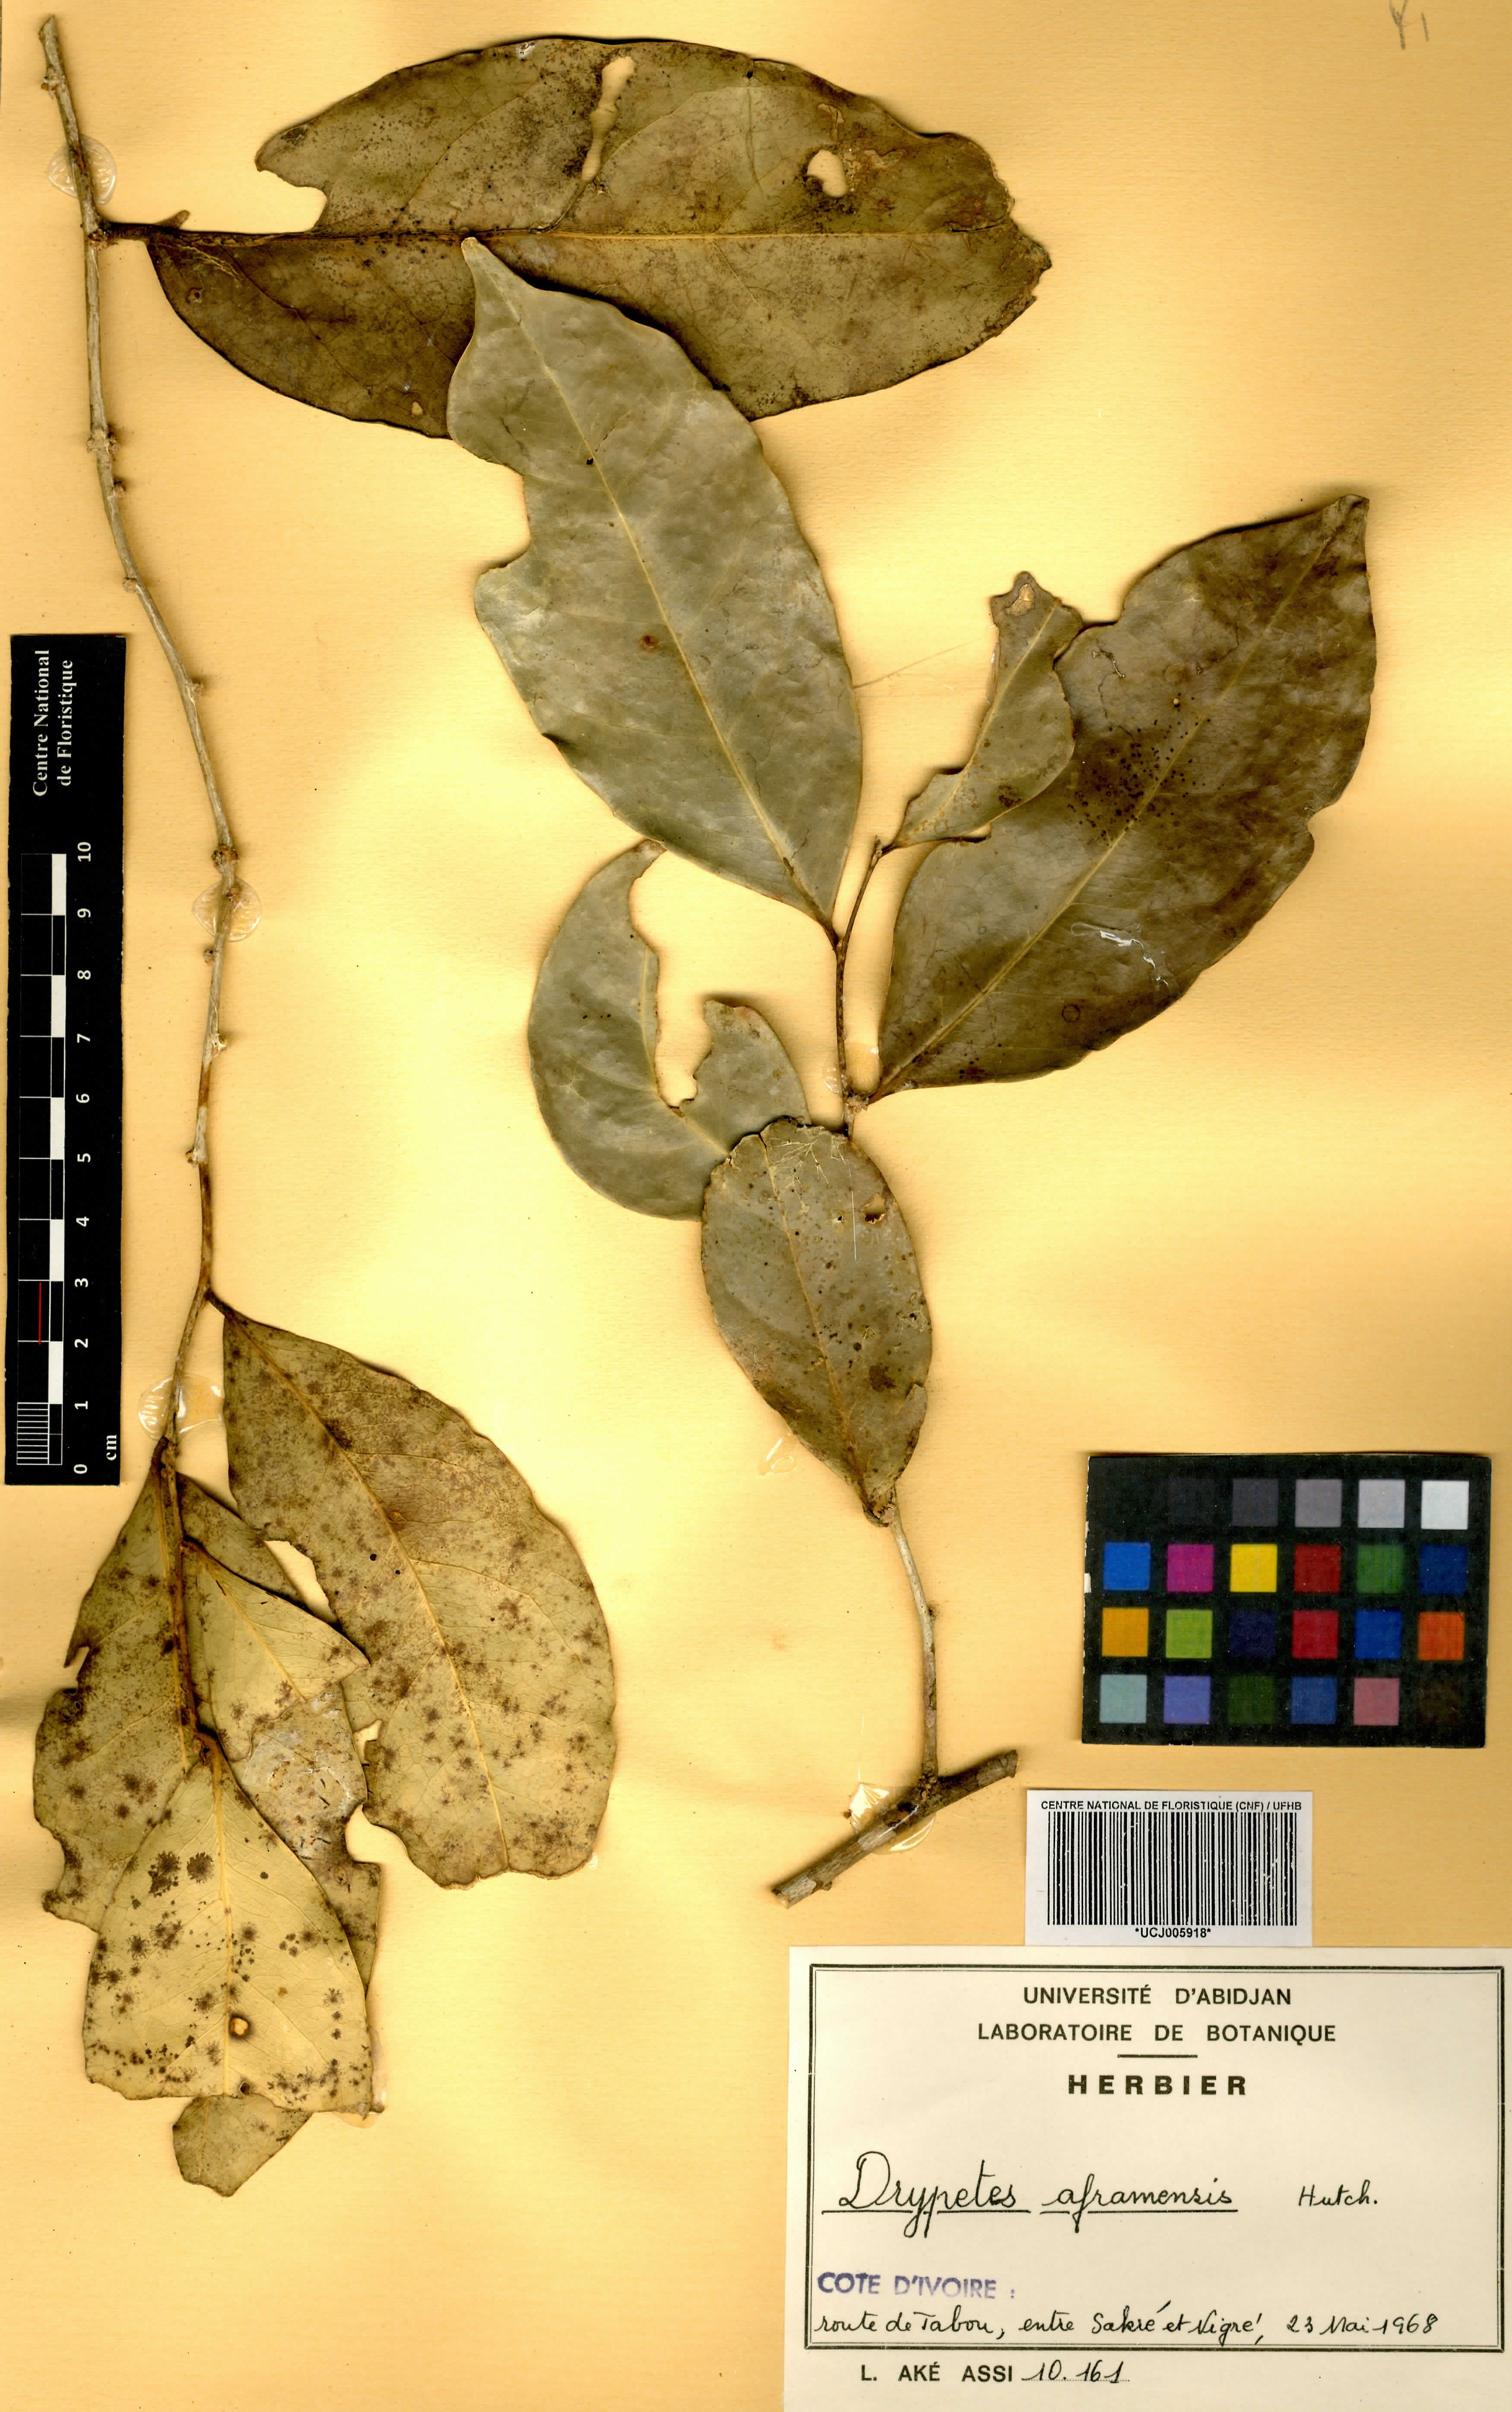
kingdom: Plantae
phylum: Tracheophyta
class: Magnoliopsida
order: Malpighiales
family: Putranjivaceae
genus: Drypetes
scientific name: Drypetes aframensis
